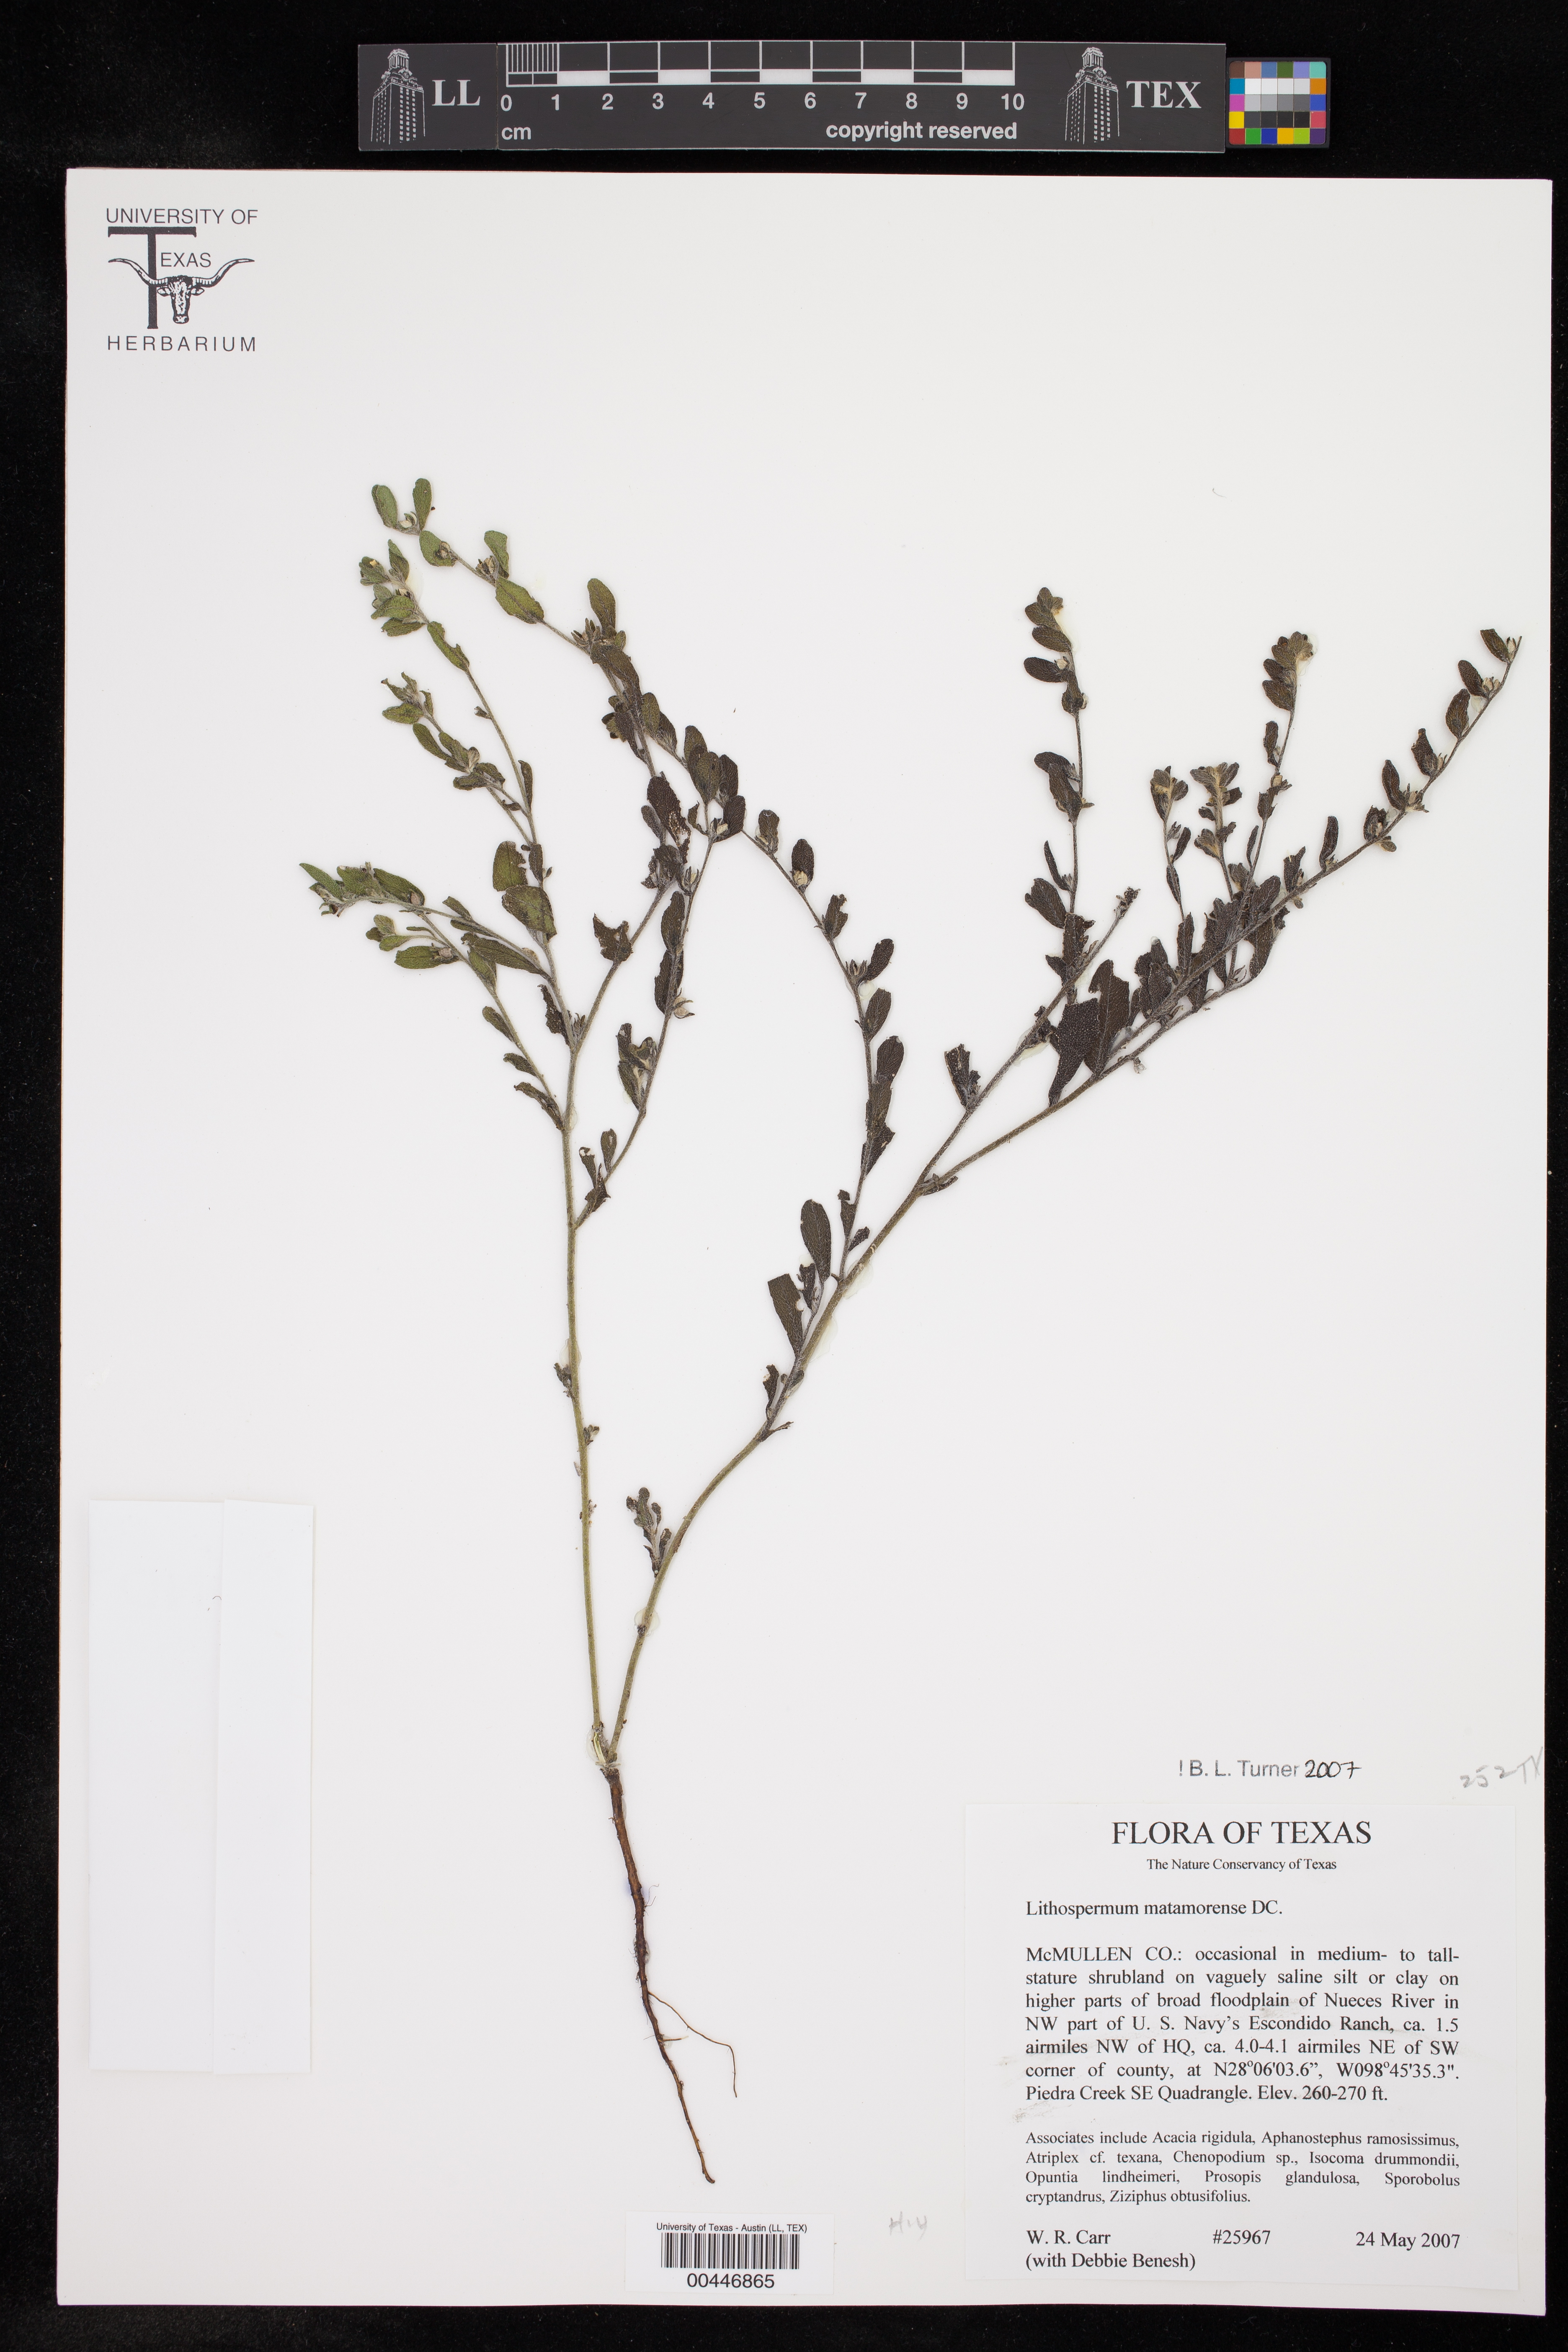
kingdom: Plantae
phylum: Tracheophyta
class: Magnoliopsida
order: Boraginales
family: Boraginaceae
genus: Lithospermum
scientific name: Lithospermum matamorense
